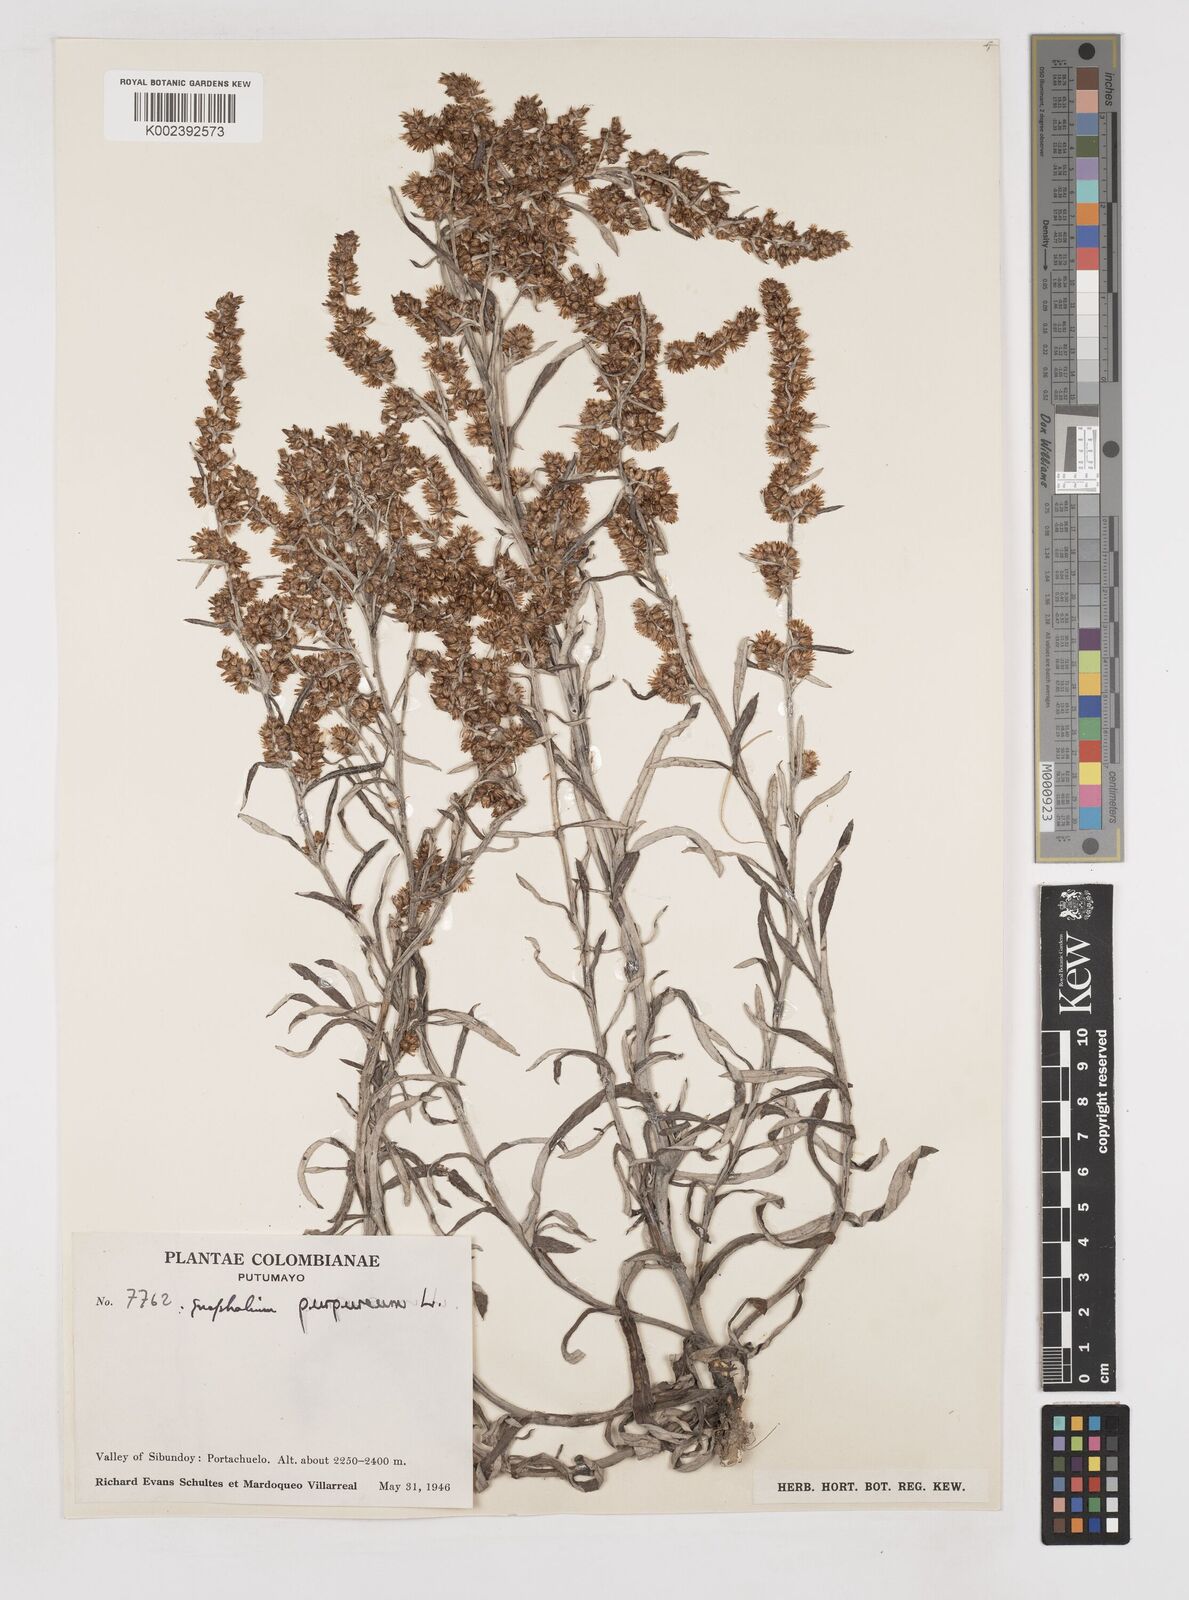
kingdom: Plantae
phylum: Tracheophyta
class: Magnoliopsida
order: Asterales
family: Asteraceae
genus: Pseudognaphalium
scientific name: Pseudognaphalium purpurascens
